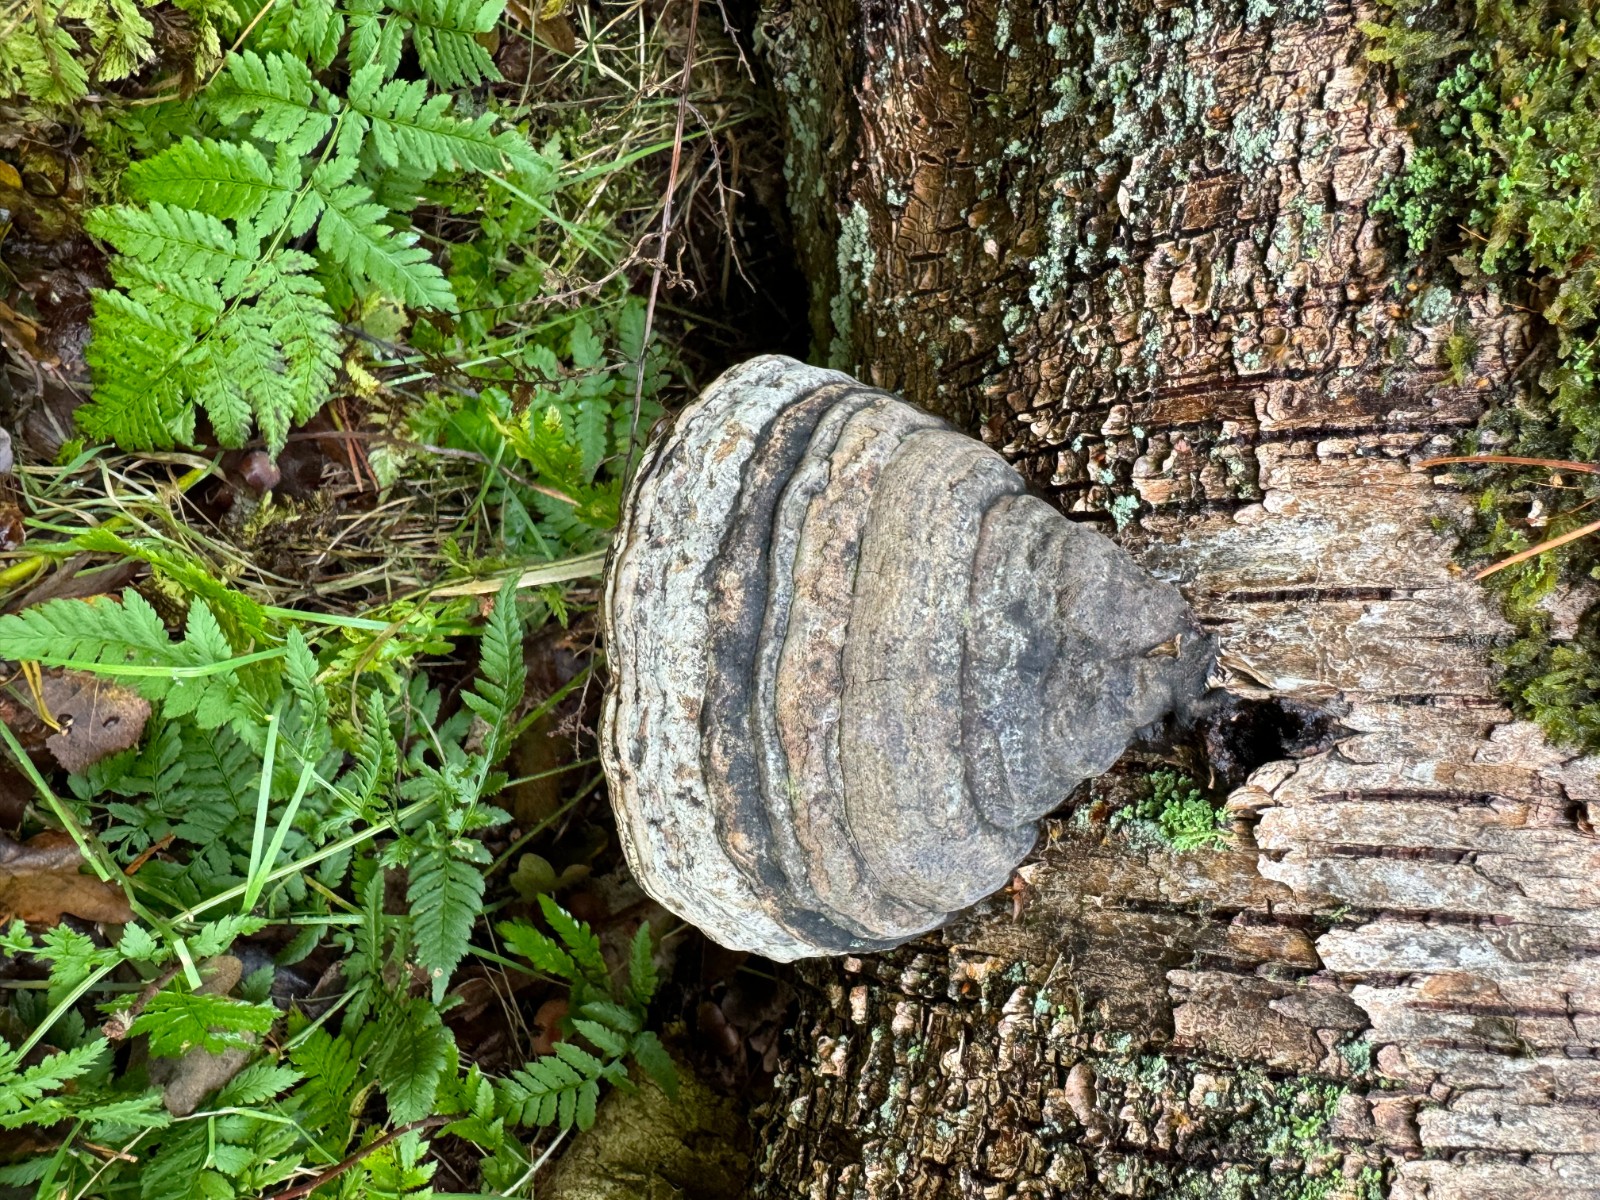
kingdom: Fungi
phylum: Basidiomycota
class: Agaricomycetes
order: Polyporales
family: Polyporaceae
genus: Fomes
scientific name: Fomes fomentarius
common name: tøndersvamp
